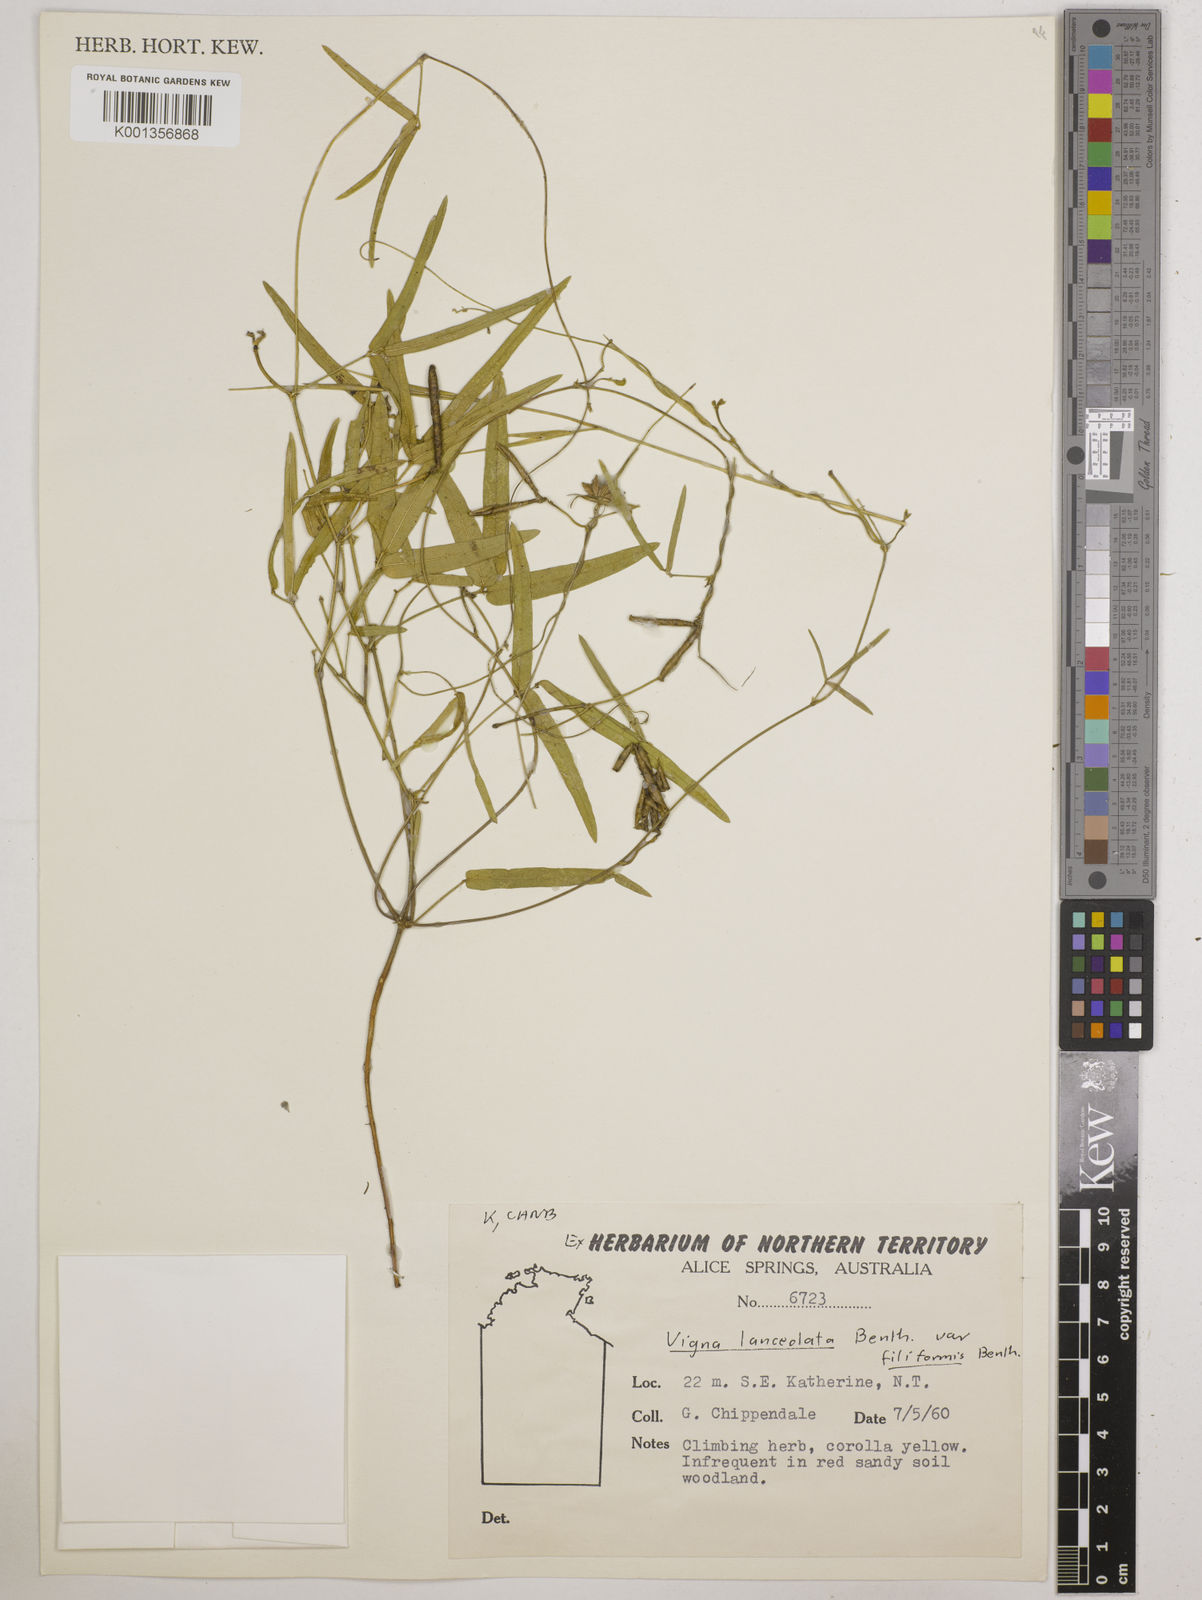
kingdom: Plantae
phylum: Tracheophyta
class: Magnoliopsida
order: Fabales
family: Fabaceae
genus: Vigna
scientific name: Vigna lanceolata
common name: Maloga-bean
